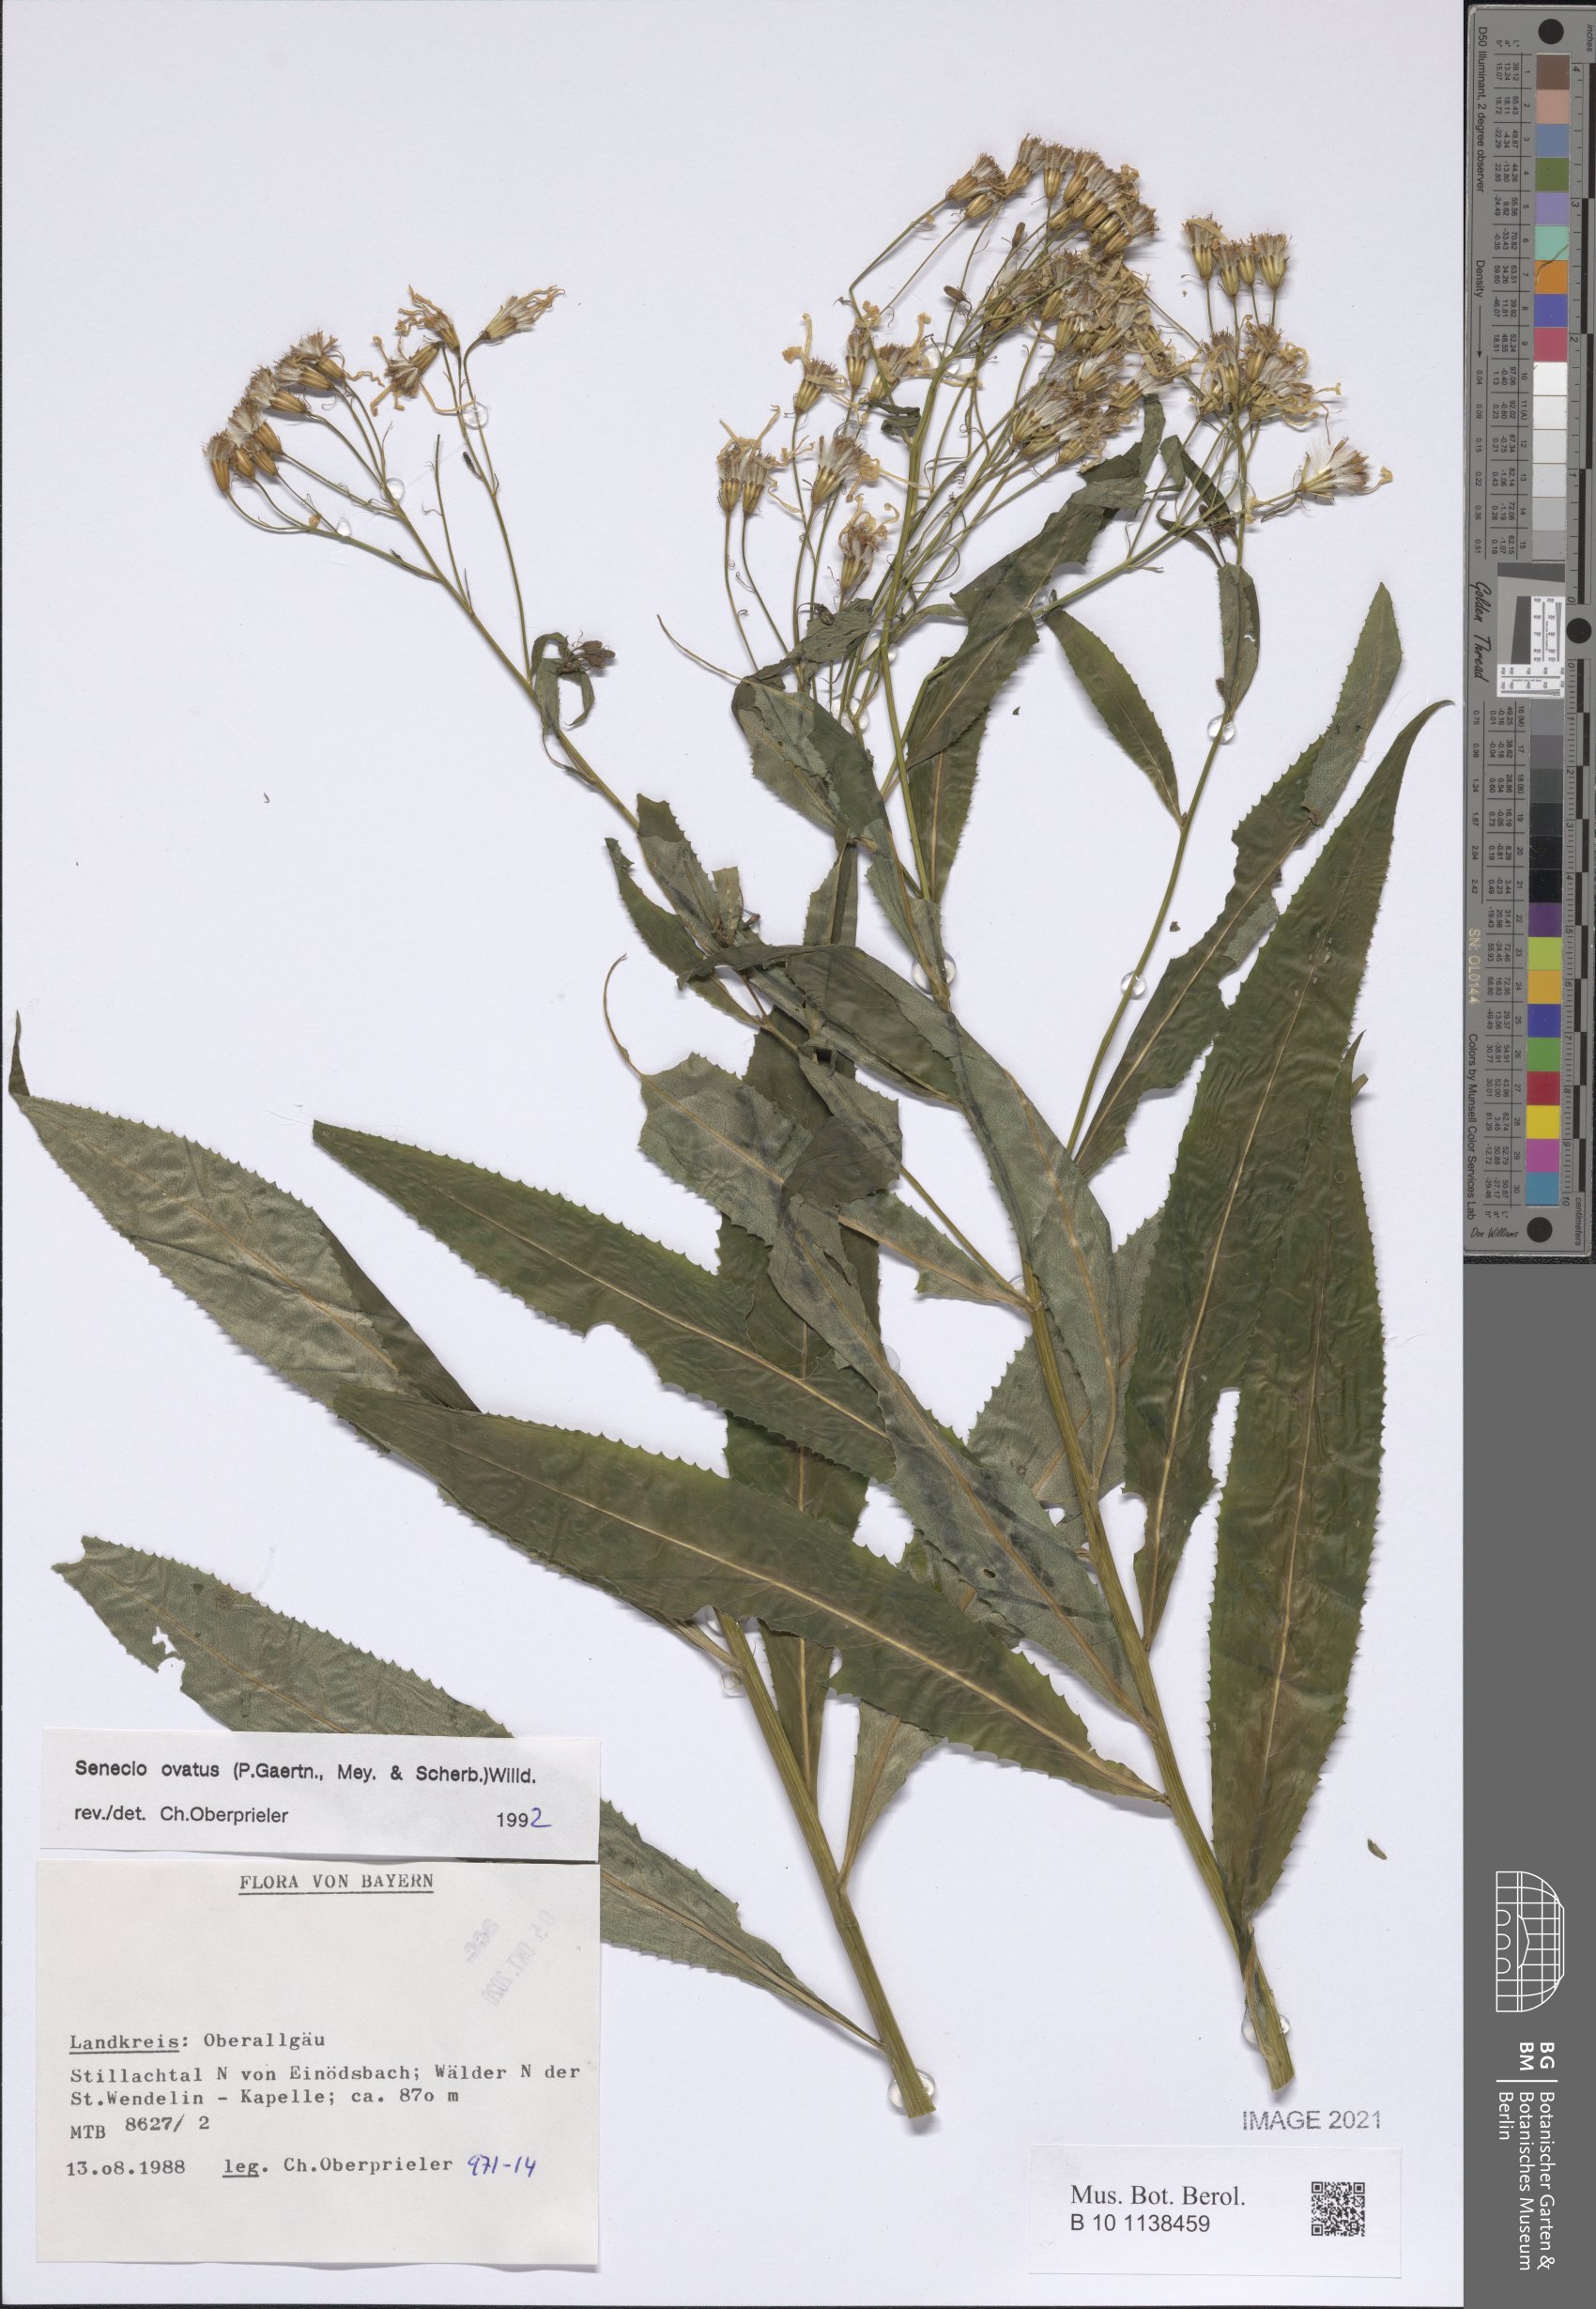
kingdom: Plantae
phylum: Tracheophyta
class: Magnoliopsida
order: Asterales
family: Asteraceae
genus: Senecio
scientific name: Senecio ovatus
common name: Wood ragwort
